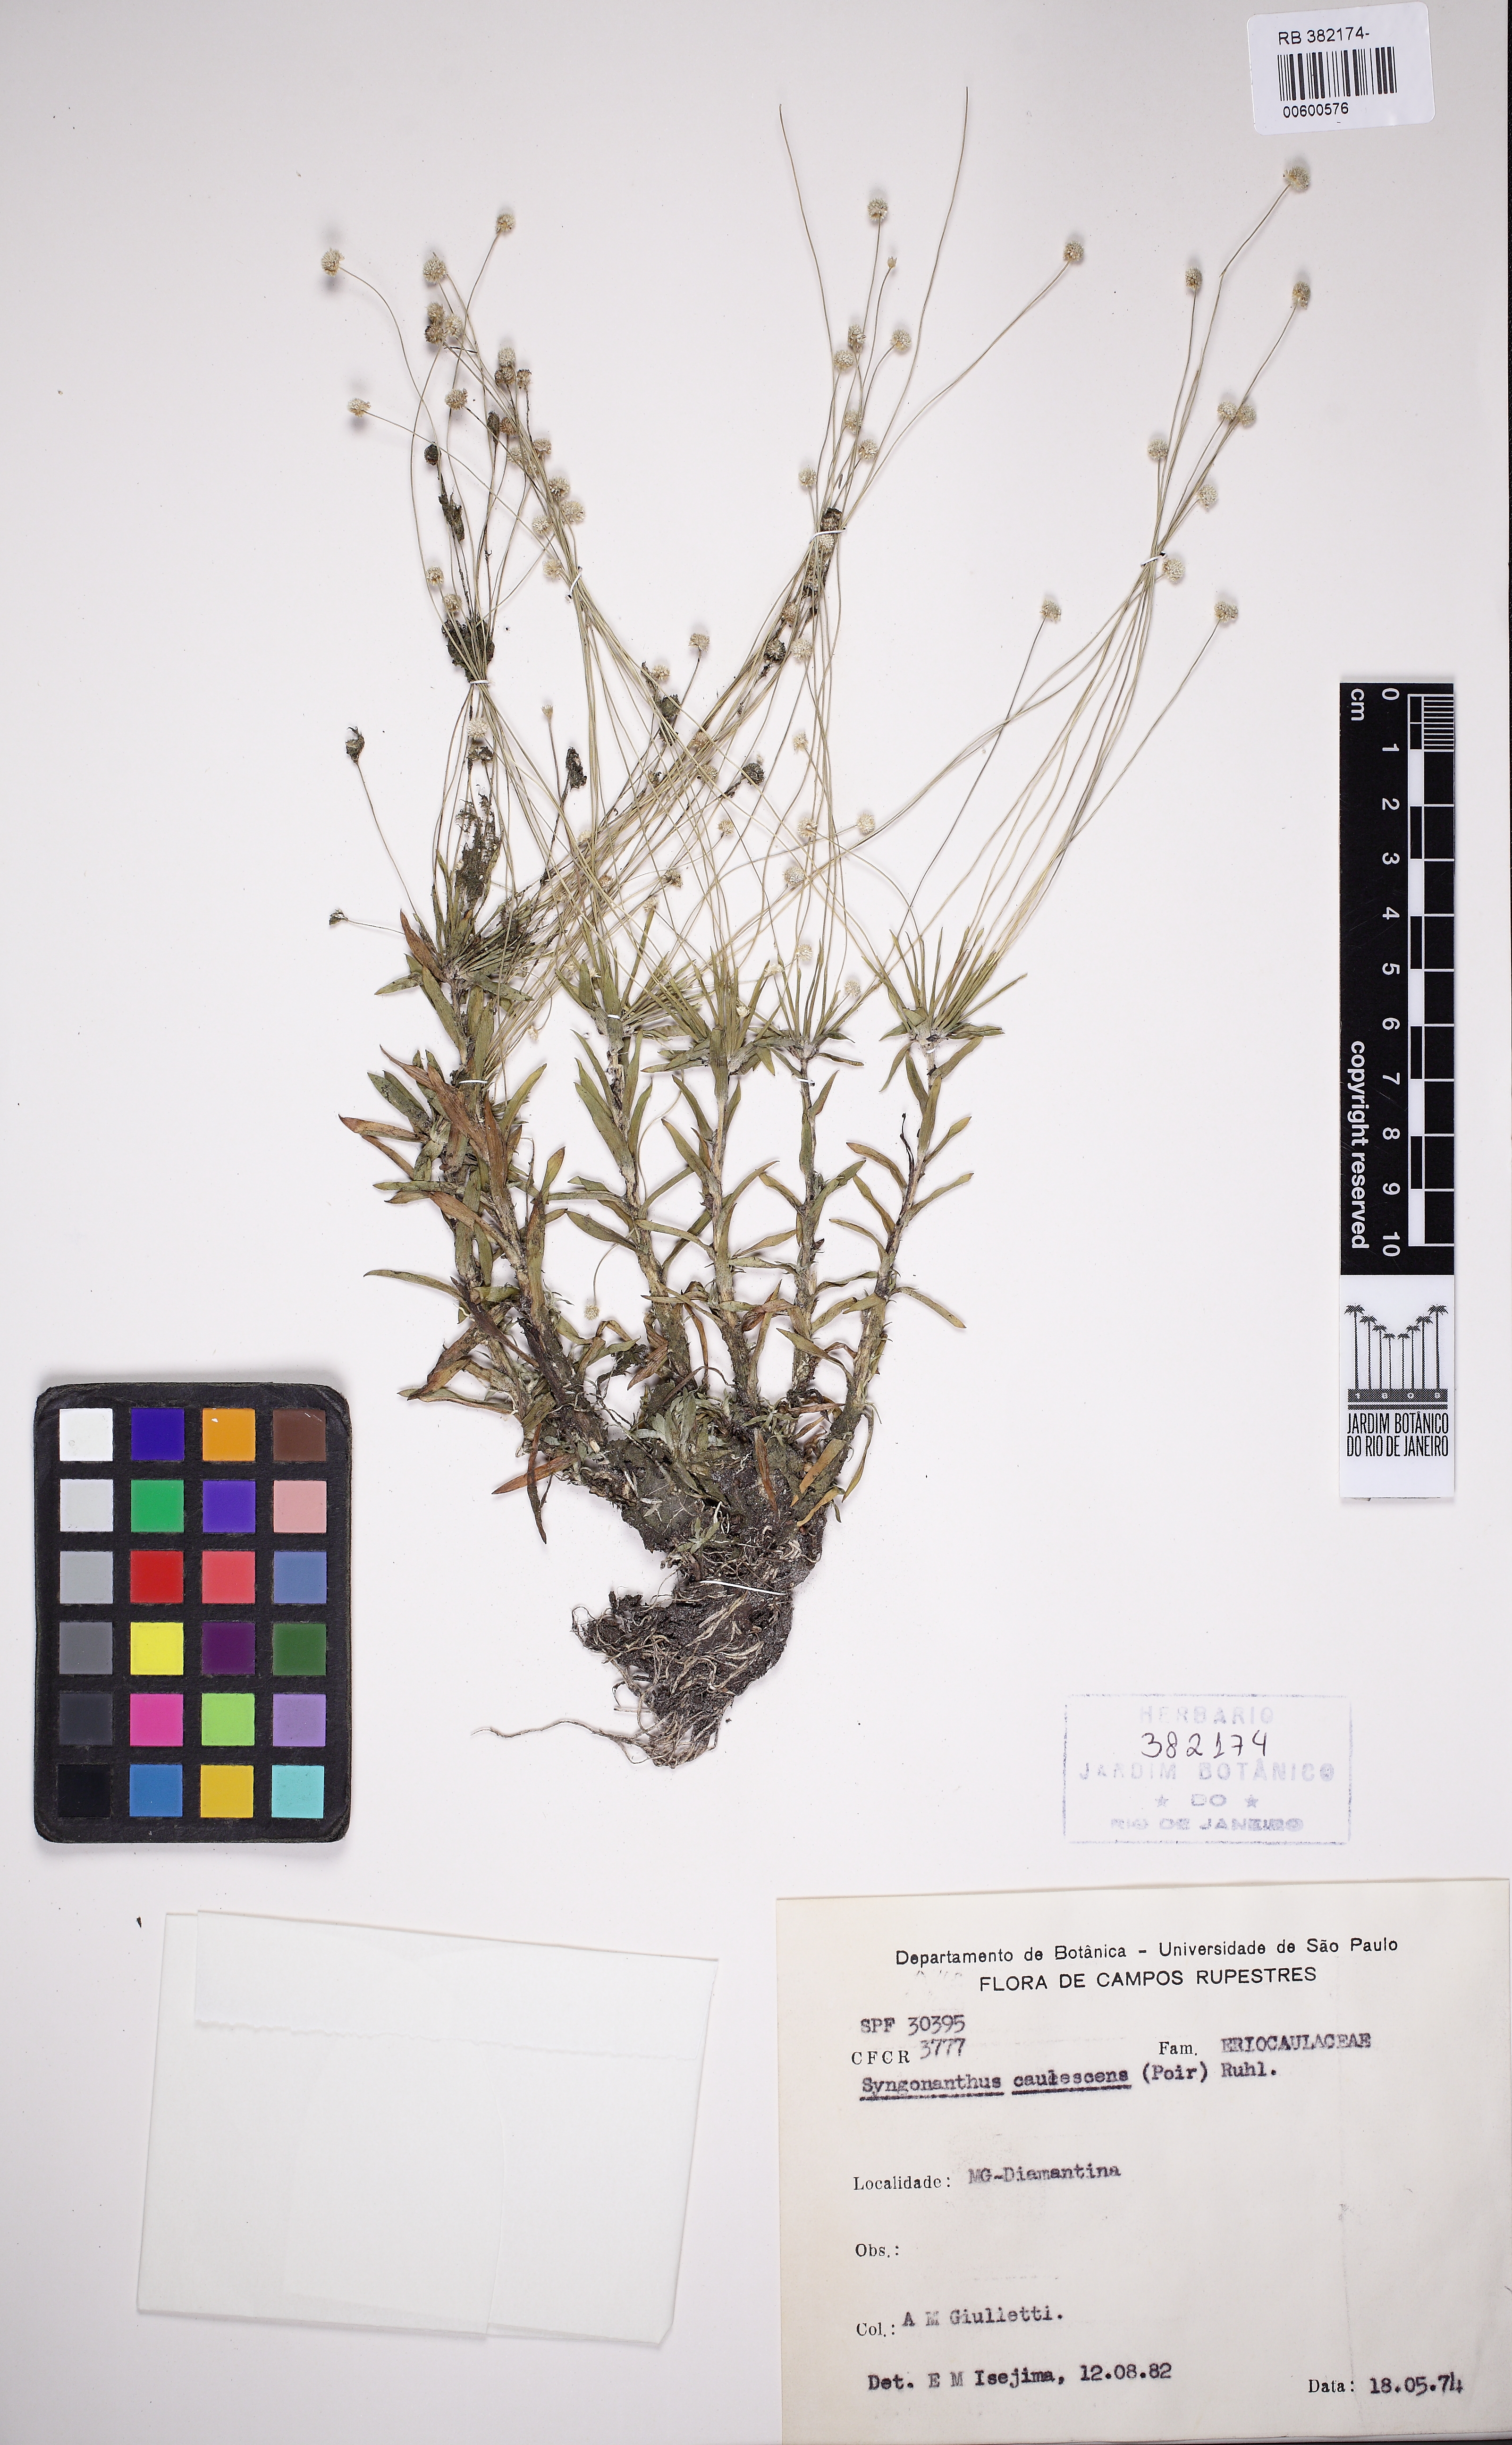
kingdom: Plantae
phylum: Tracheophyta
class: Liliopsida
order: Poales
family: Eriocaulaceae
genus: Syngonanthus
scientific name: Syngonanthus caulescens
